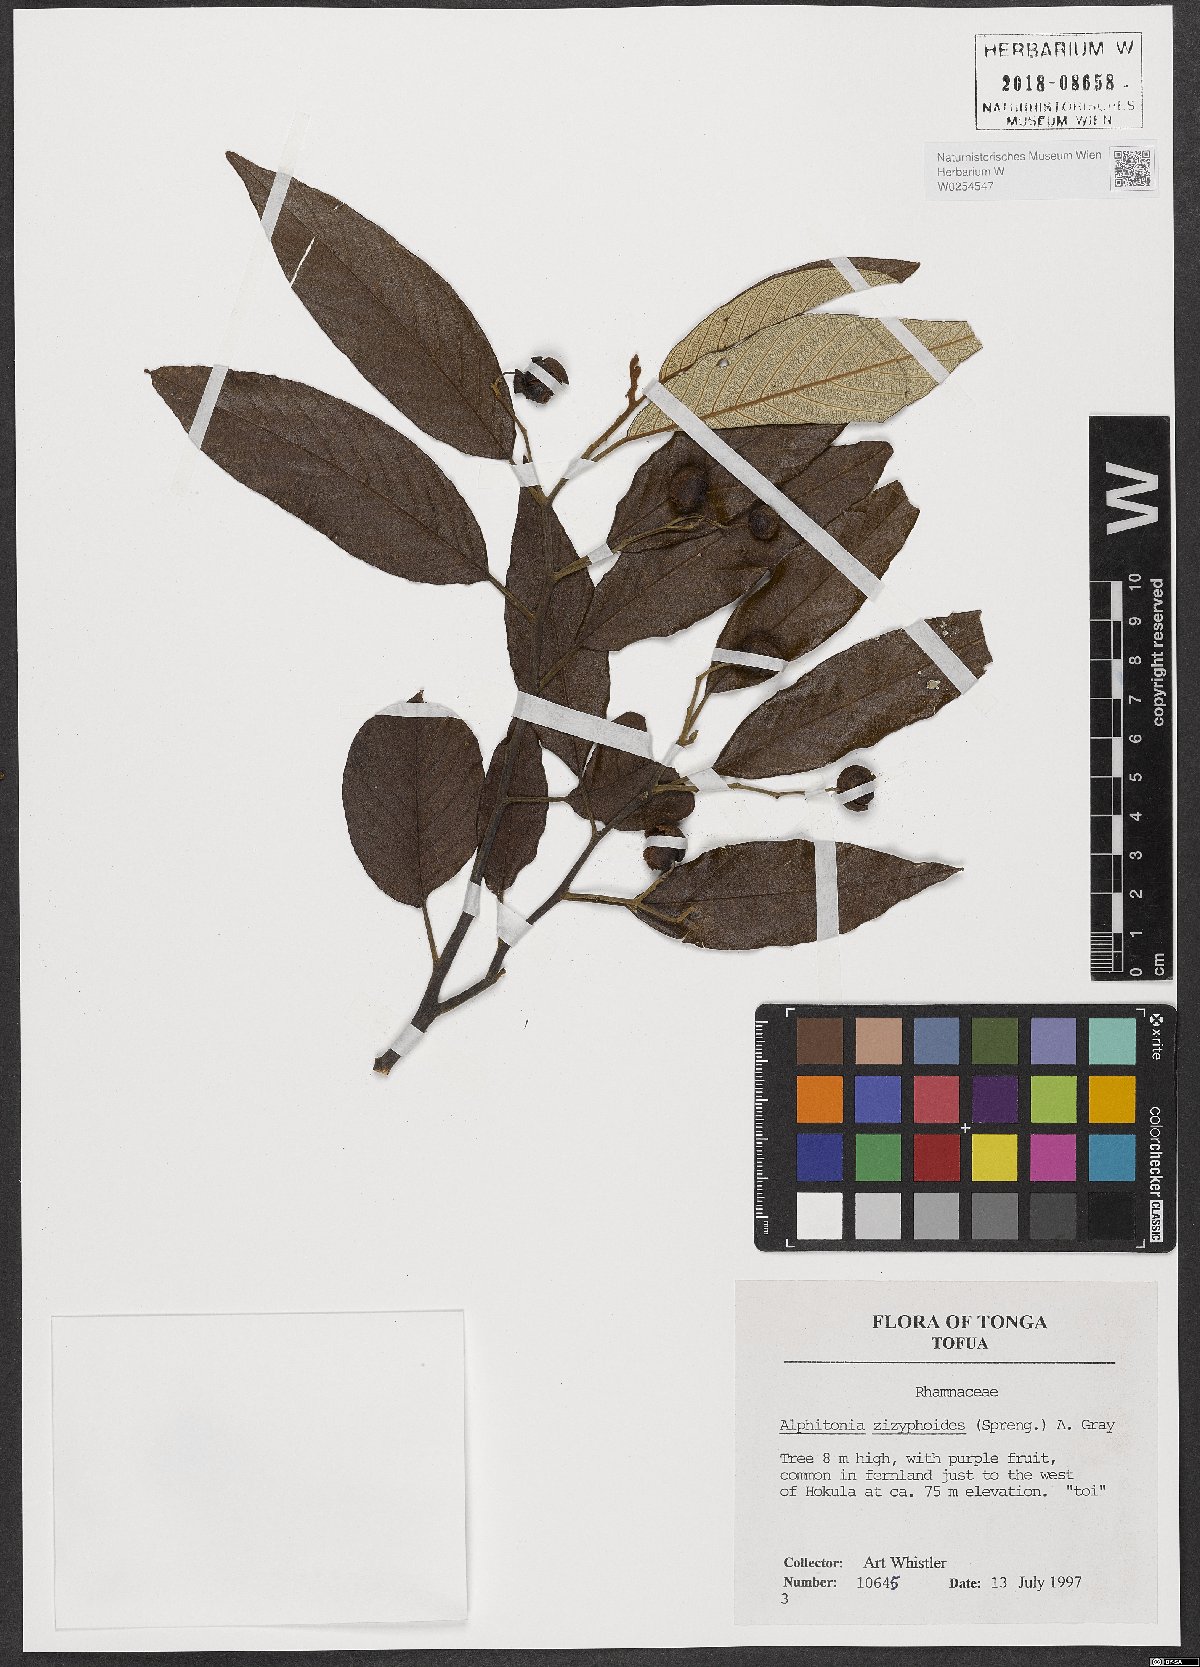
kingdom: Plantae
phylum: Tracheophyta
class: Magnoliopsida
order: Rosales
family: Rhamnaceae
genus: Alphitonia
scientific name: Alphitonia zizyphoides
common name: Toi
